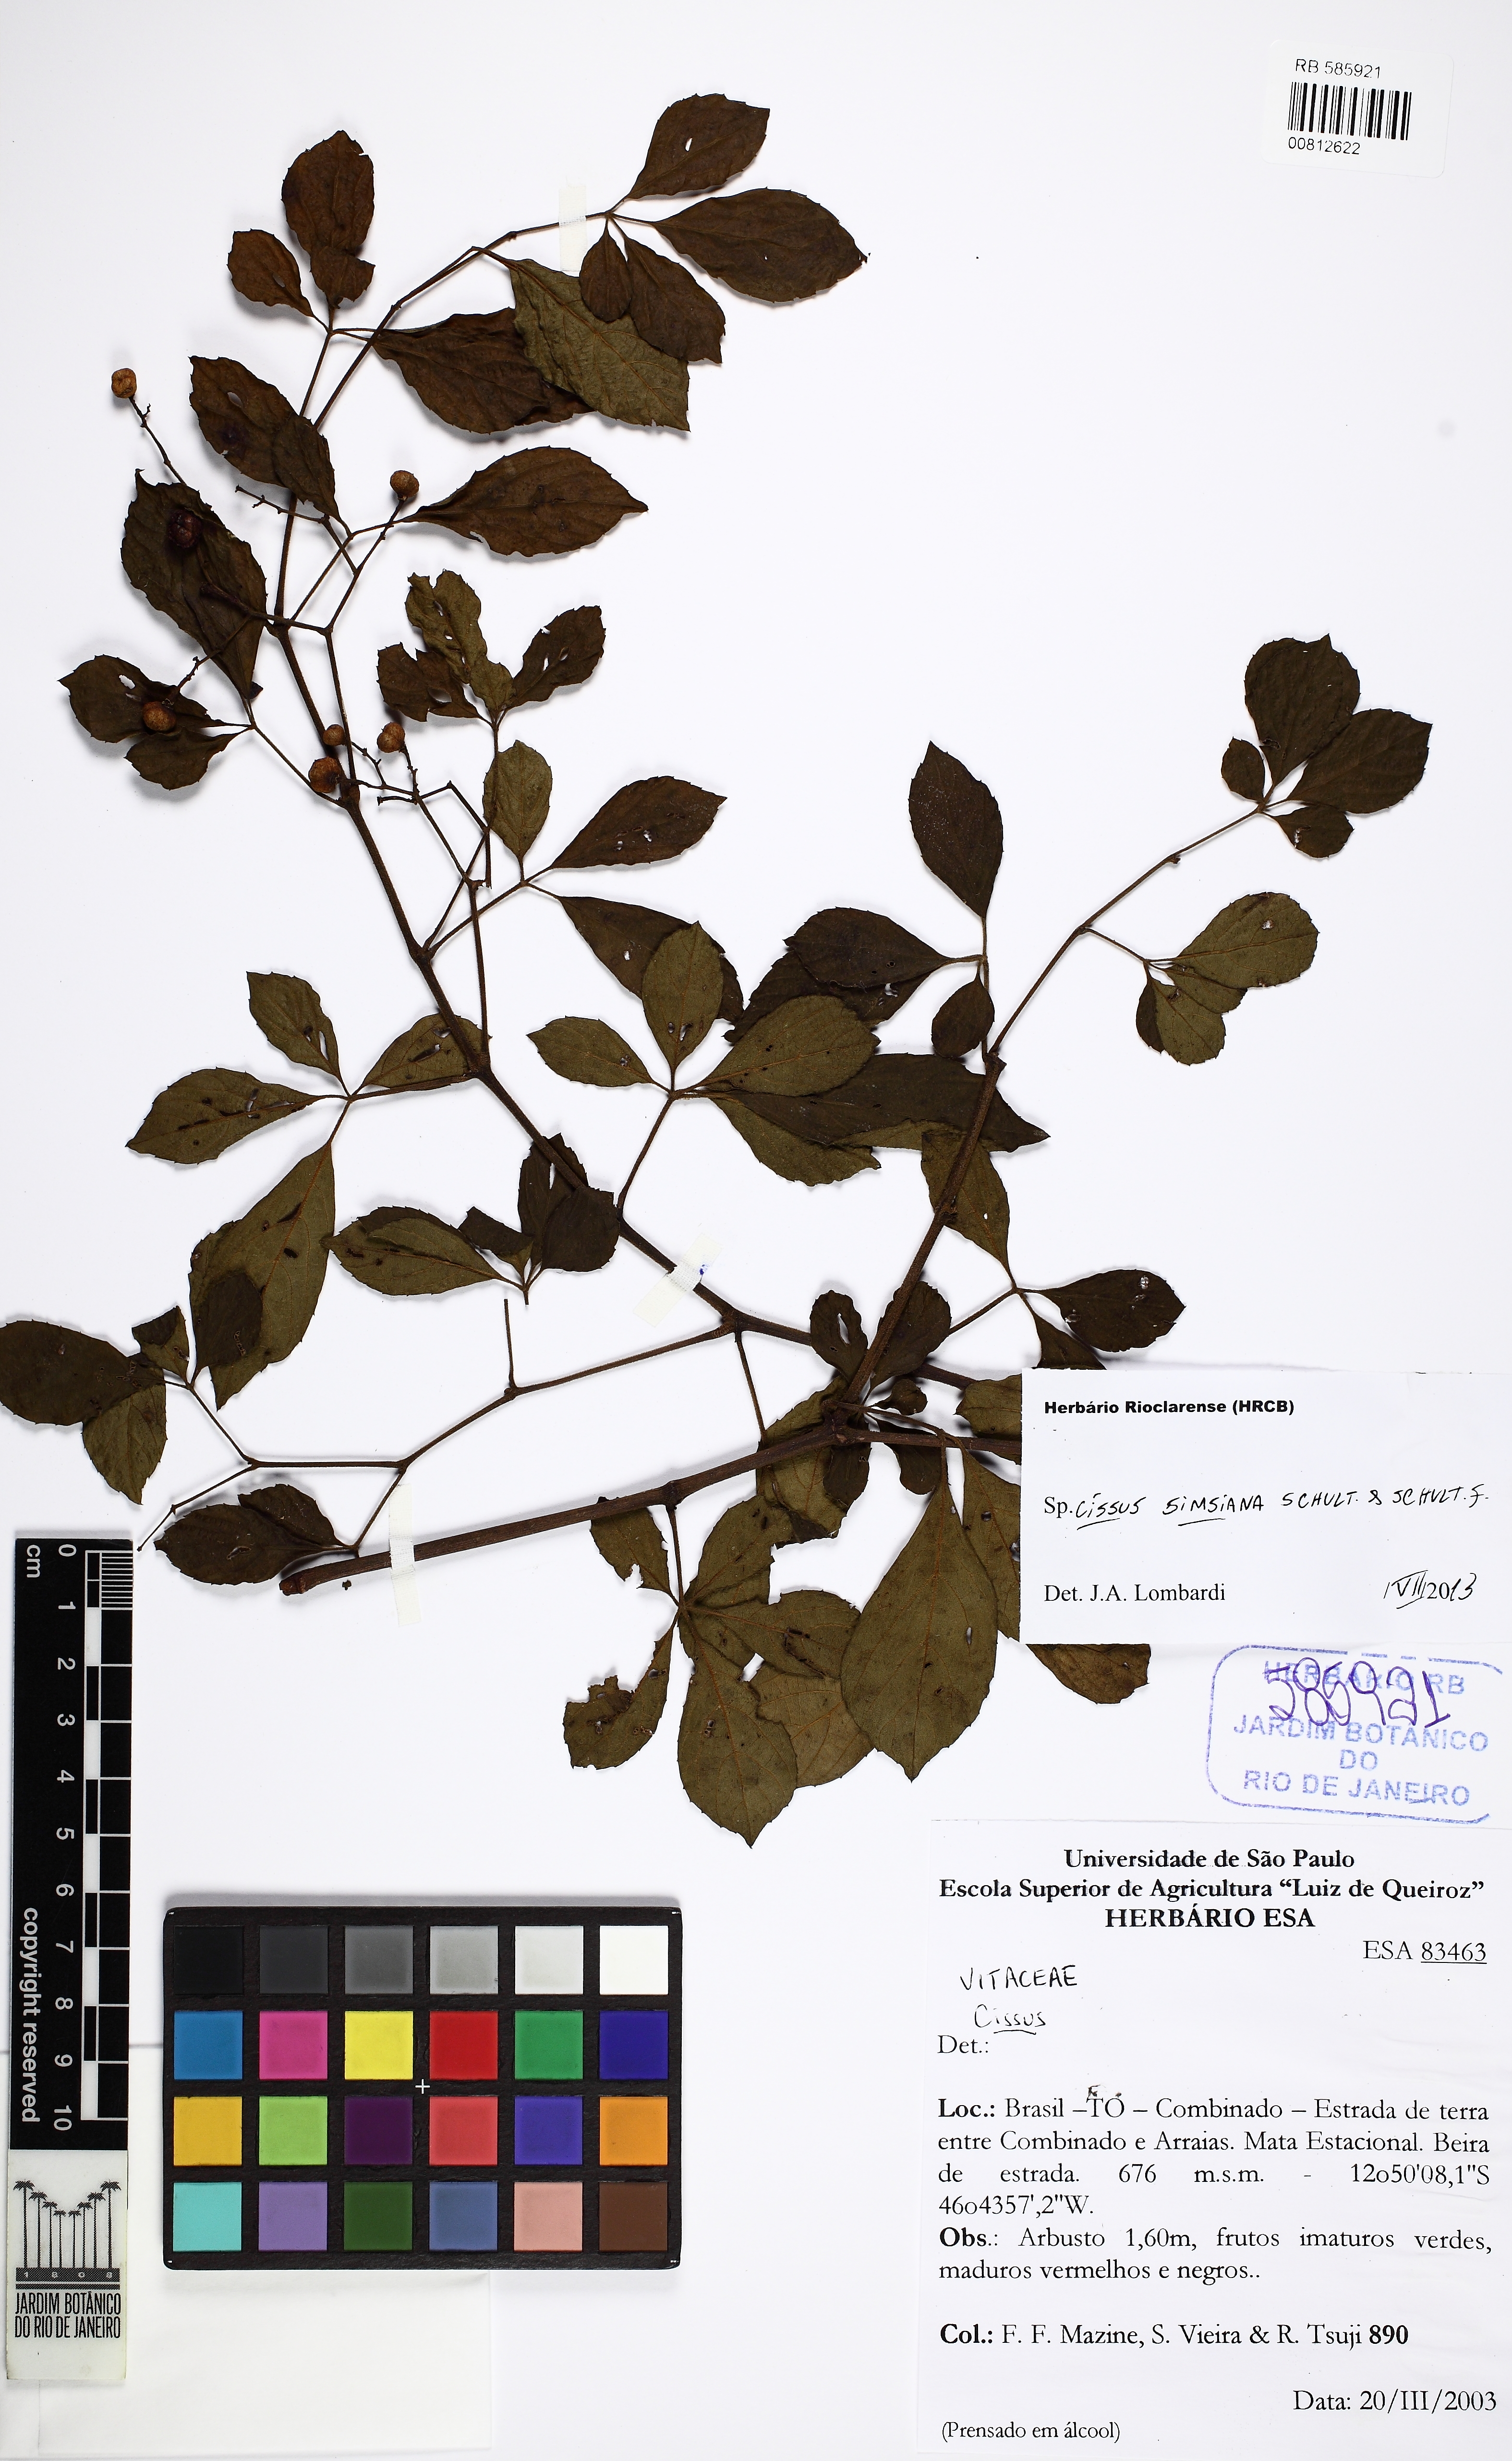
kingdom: Plantae
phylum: Tracheophyta
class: Magnoliopsida
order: Vitales
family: Vitaceae
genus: Clematicissus
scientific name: Clematicissus simsiana
